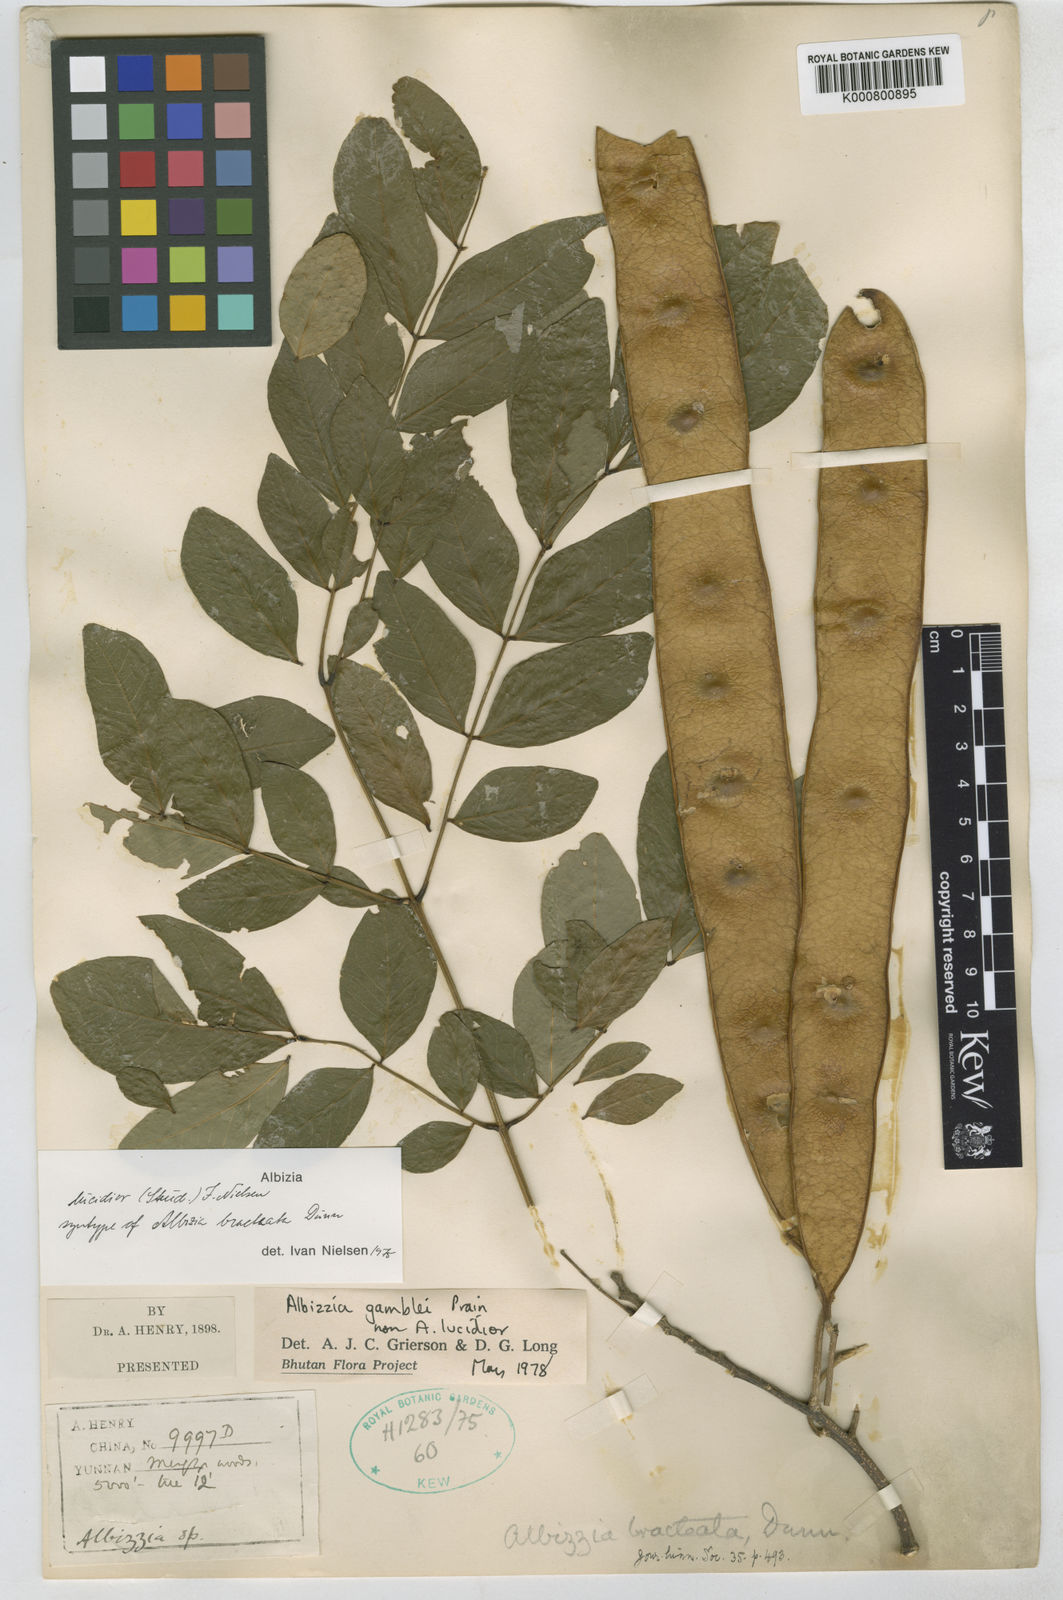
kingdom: Plantae
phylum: Tracheophyta
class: Magnoliopsida
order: Fabales
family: Fabaceae
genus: Albizia
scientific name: Albizia lucidior
